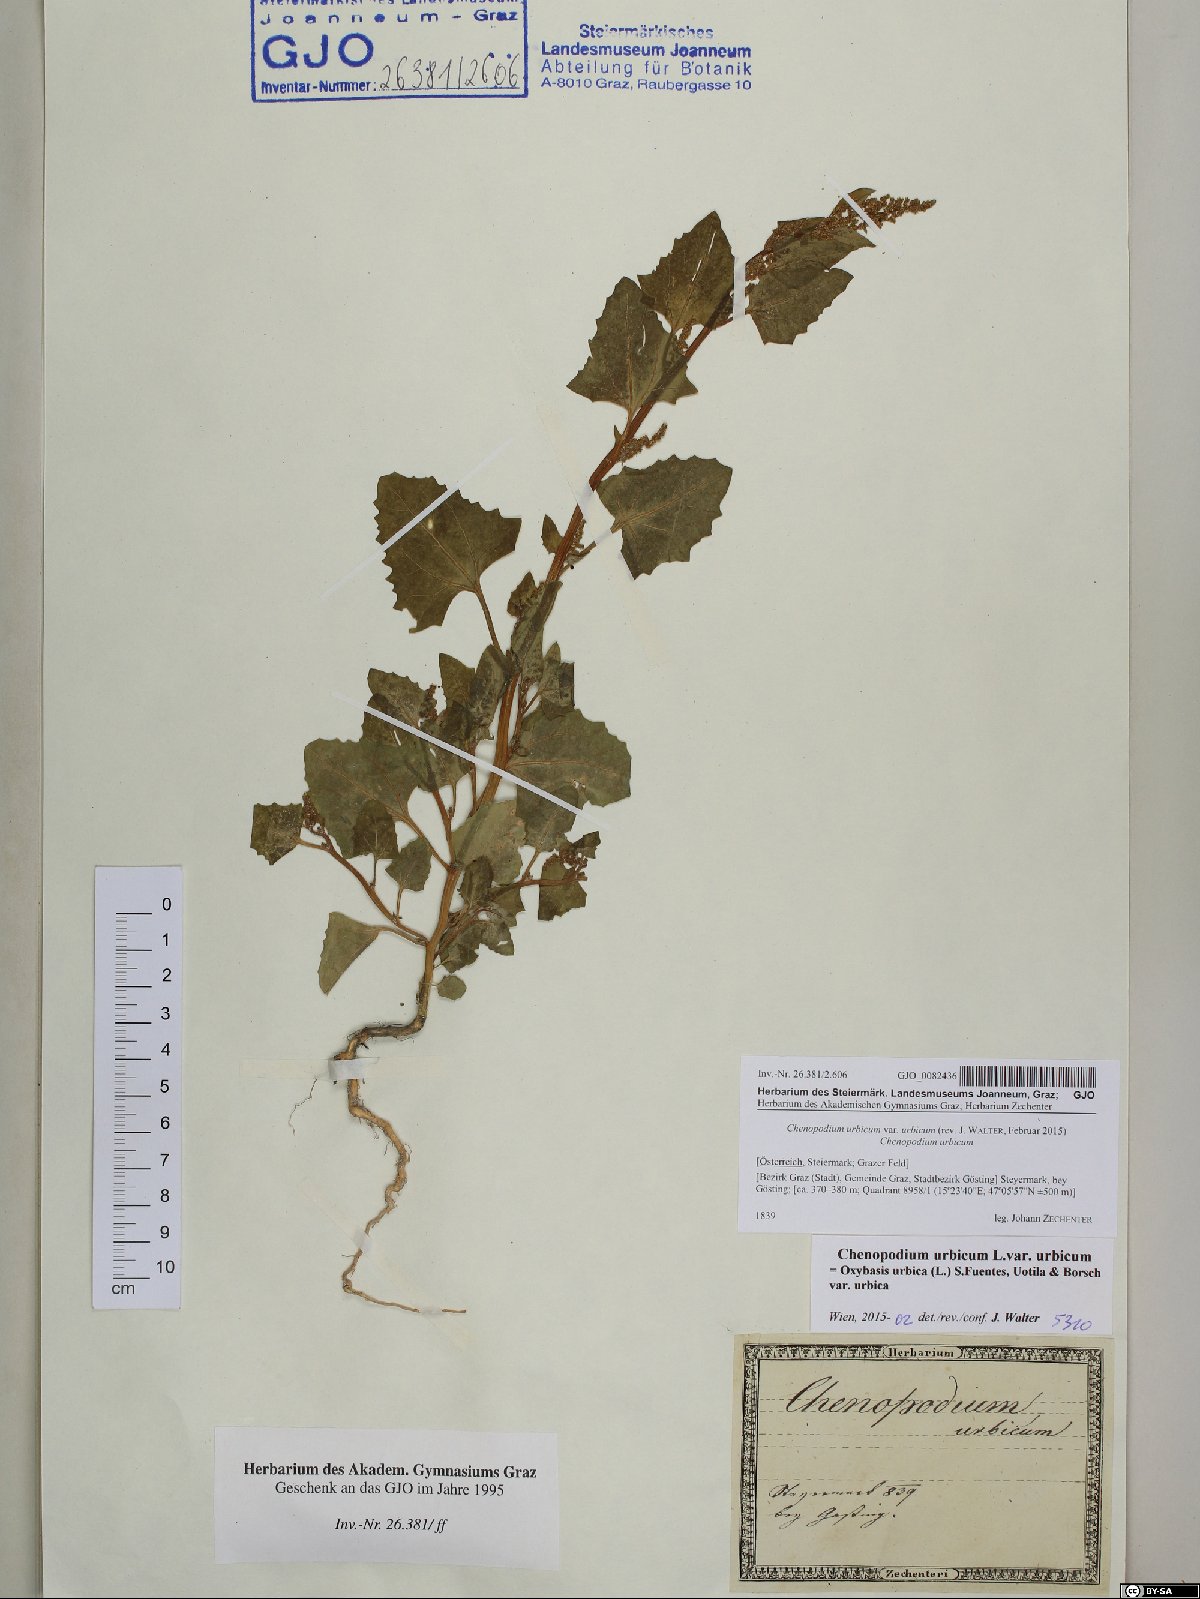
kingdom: Plantae
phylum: Tracheophyta
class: Magnoliopsida
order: Caryophyllales
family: Amaranthaceae
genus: Oxybasis
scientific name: Oxybasis urbica
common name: City goosefoot
